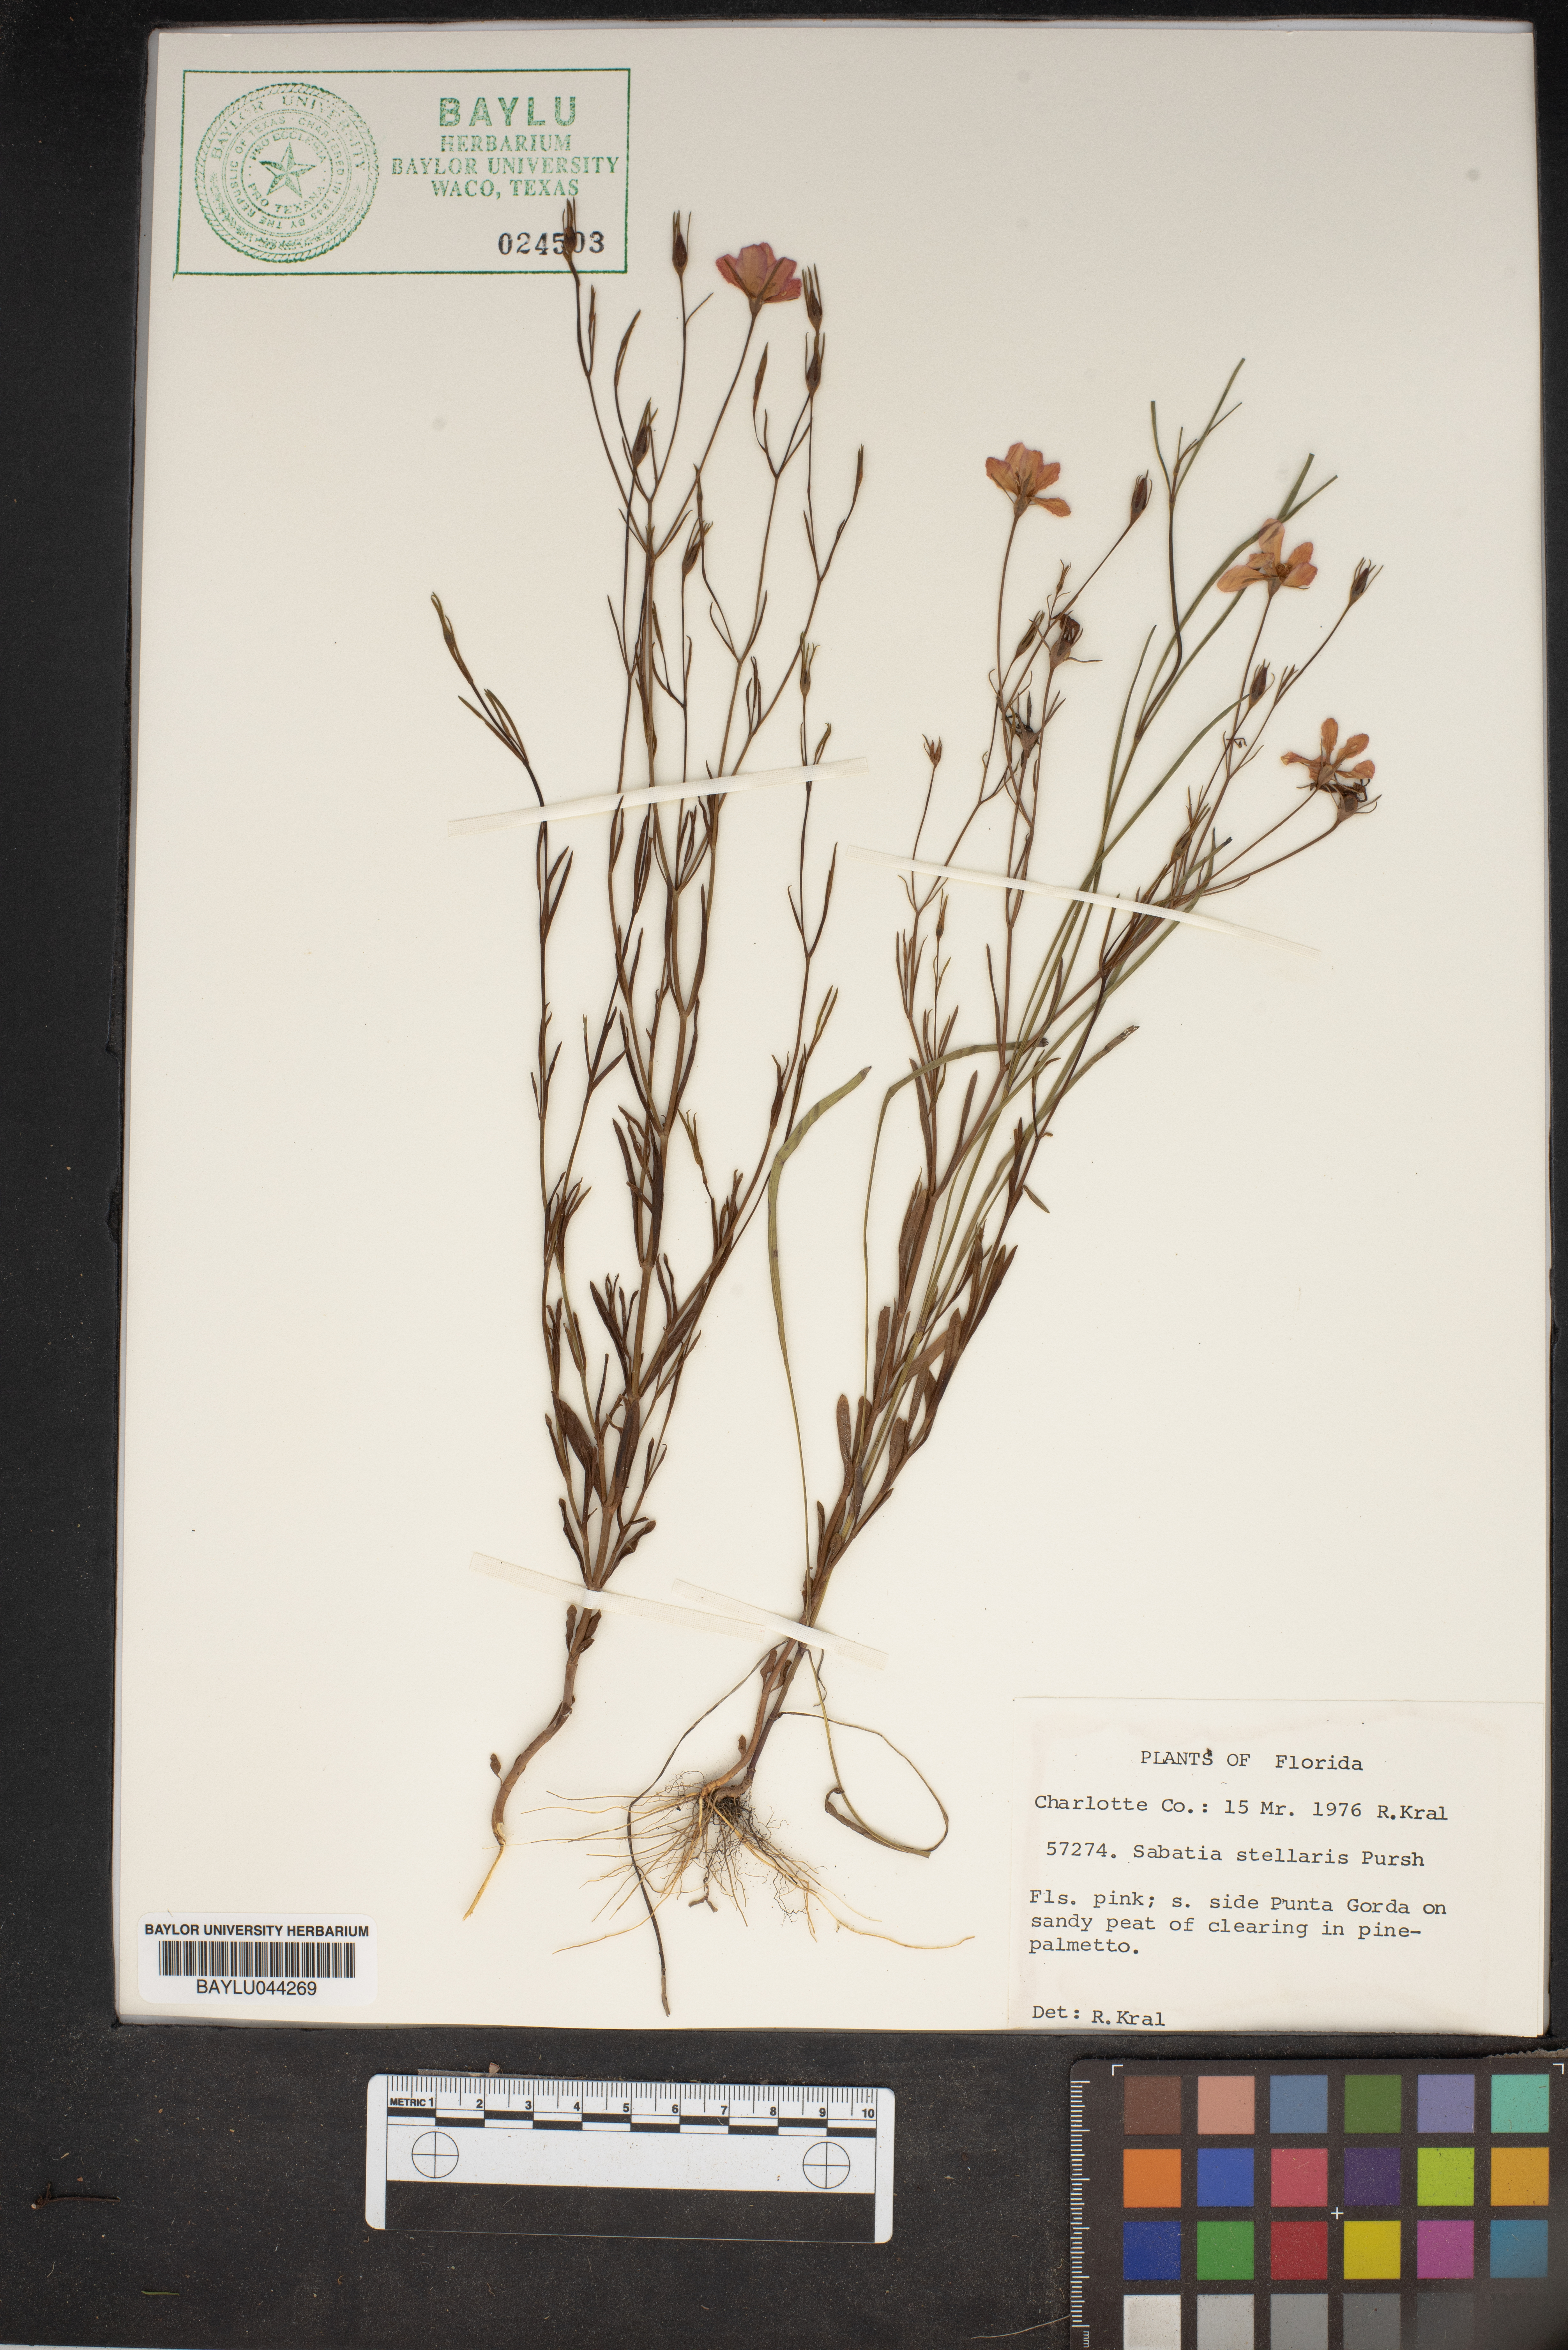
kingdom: Plantae
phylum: Tracheophyta
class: Magnoliopsida
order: Gentianales
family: Gentianaceae
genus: Sabatia
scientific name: Sabatia stellaris
